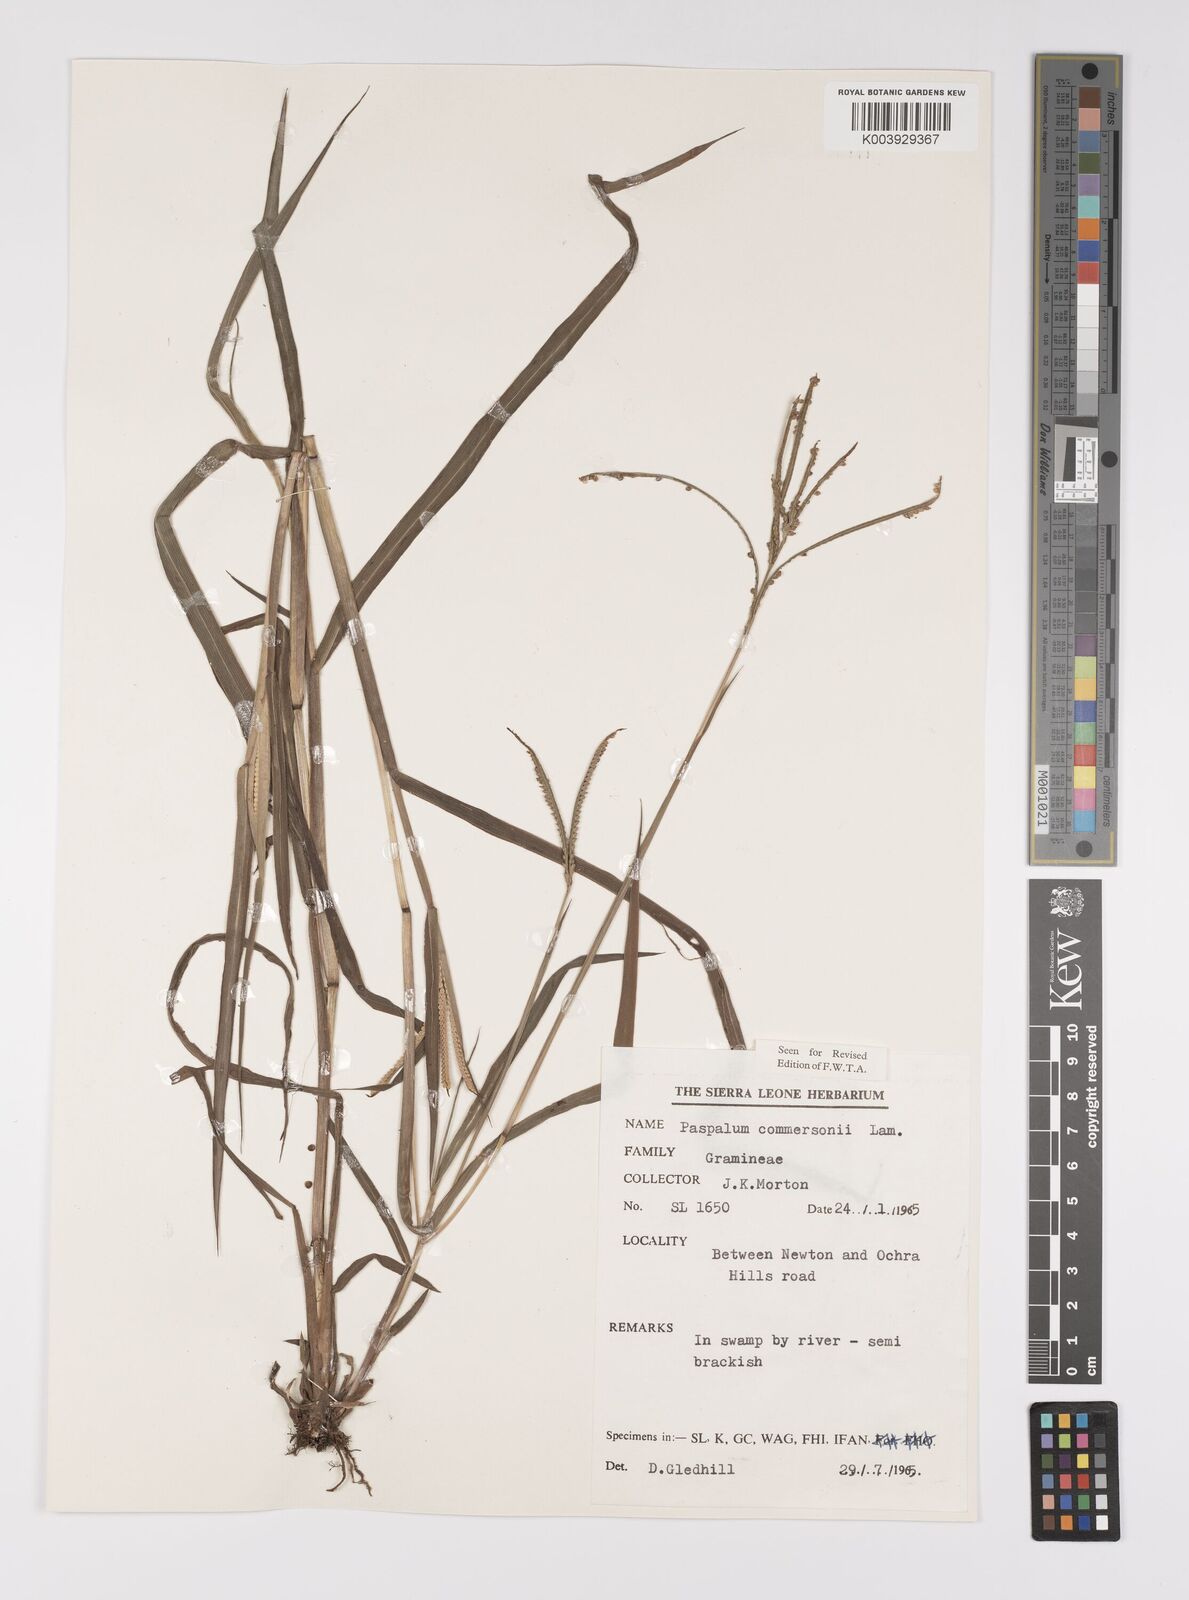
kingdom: Plantae
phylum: Tracheophyta
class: Liliopsida
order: Poales
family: Poaceae
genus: Paspalum
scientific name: Paspalum scrobiculatum
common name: Kodo millet
